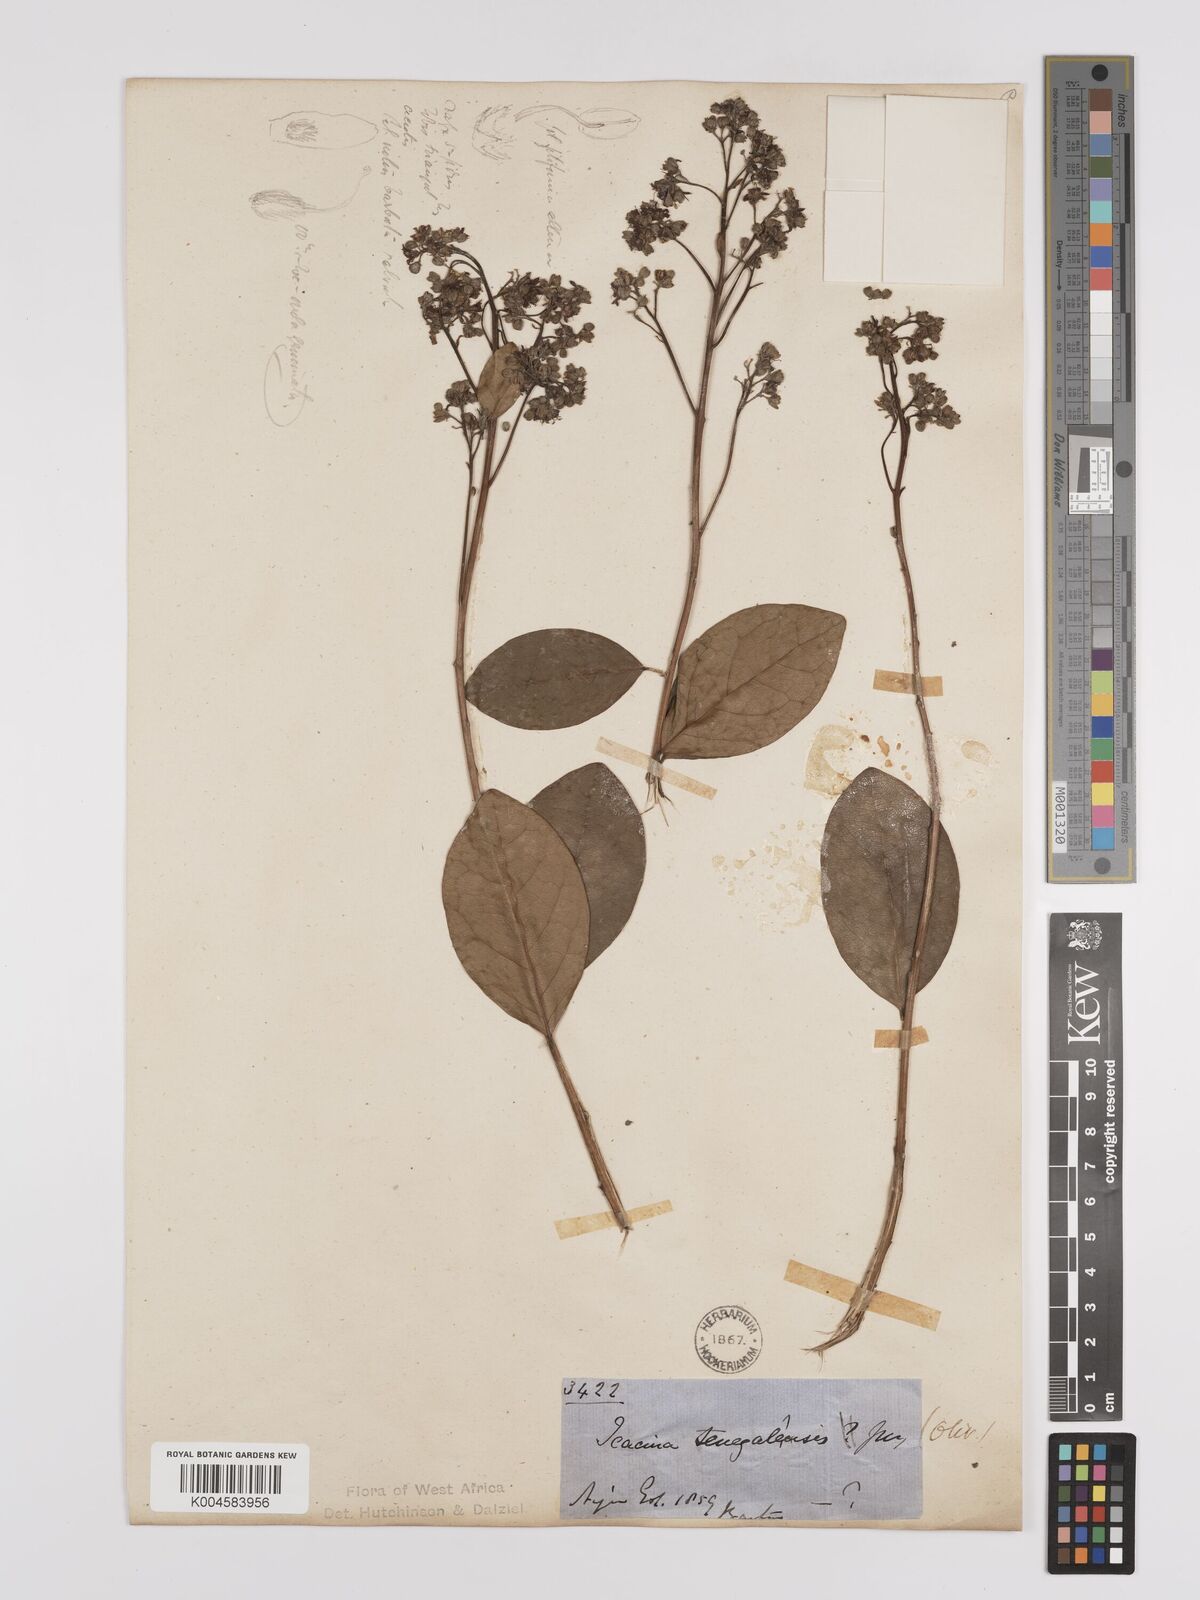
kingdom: Plantae
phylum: Tracheophyta
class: Magnoliopsida
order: Icacinales
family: Icacinaceae
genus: Icacina
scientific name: Icacina oliviformis
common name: False yam
